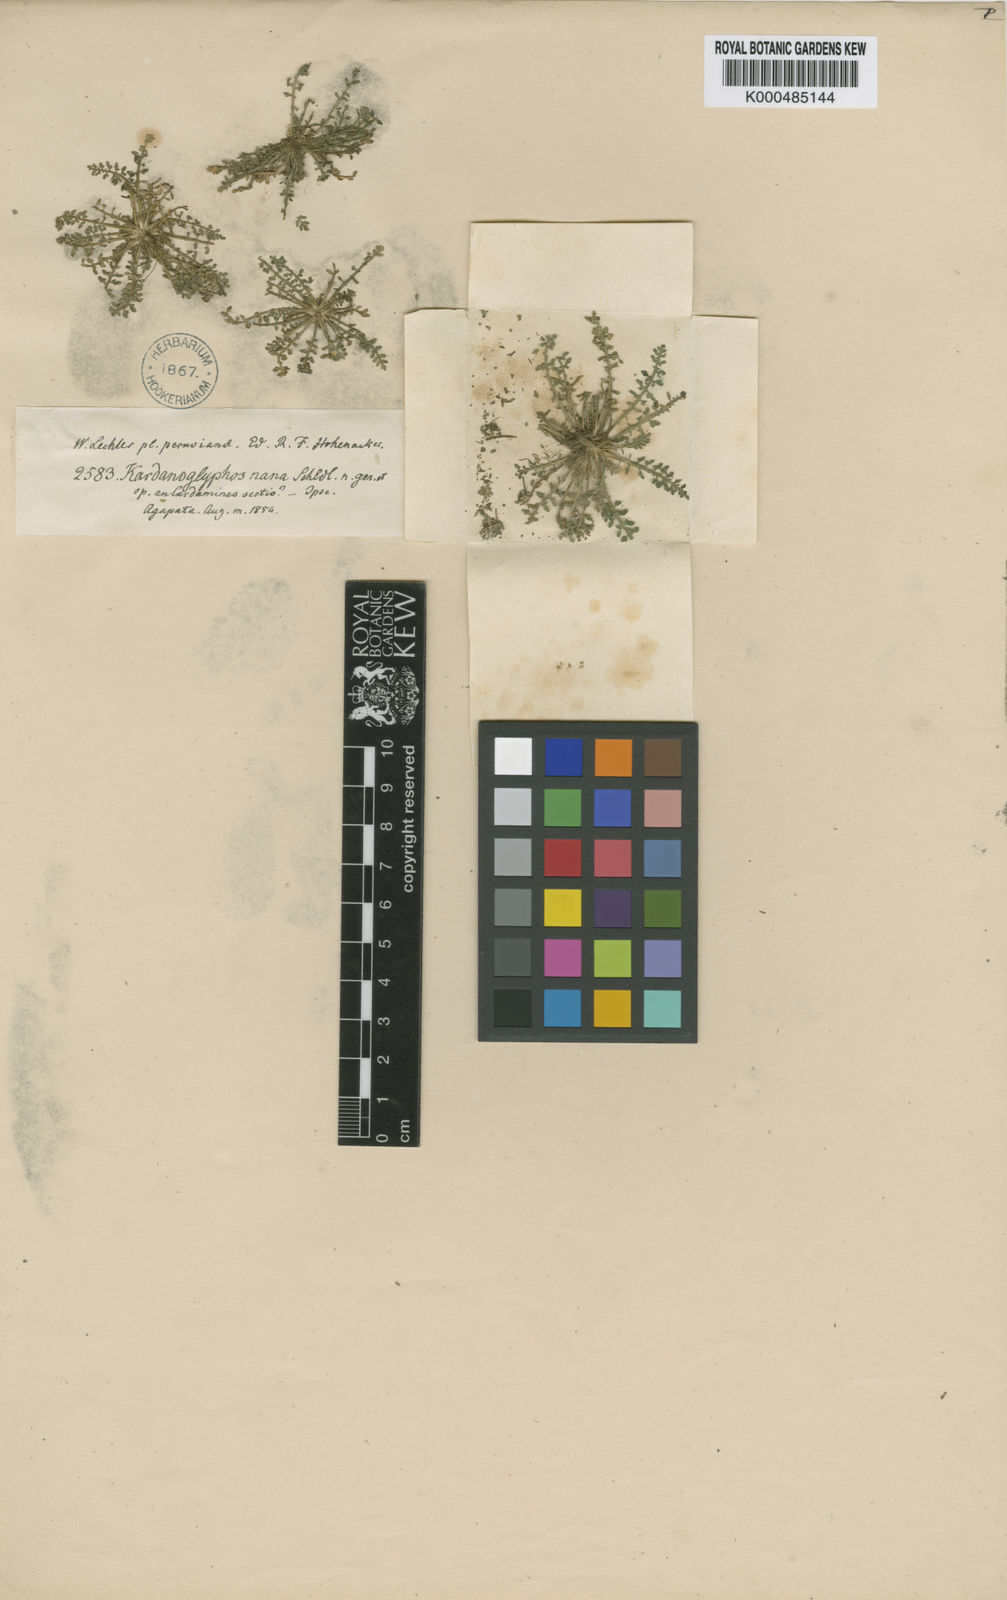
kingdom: Plantae
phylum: Tracheophyta
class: Magnoliopsida
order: Brassicales
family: Brassicaceae
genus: Rorippa
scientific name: Rorippa nana
